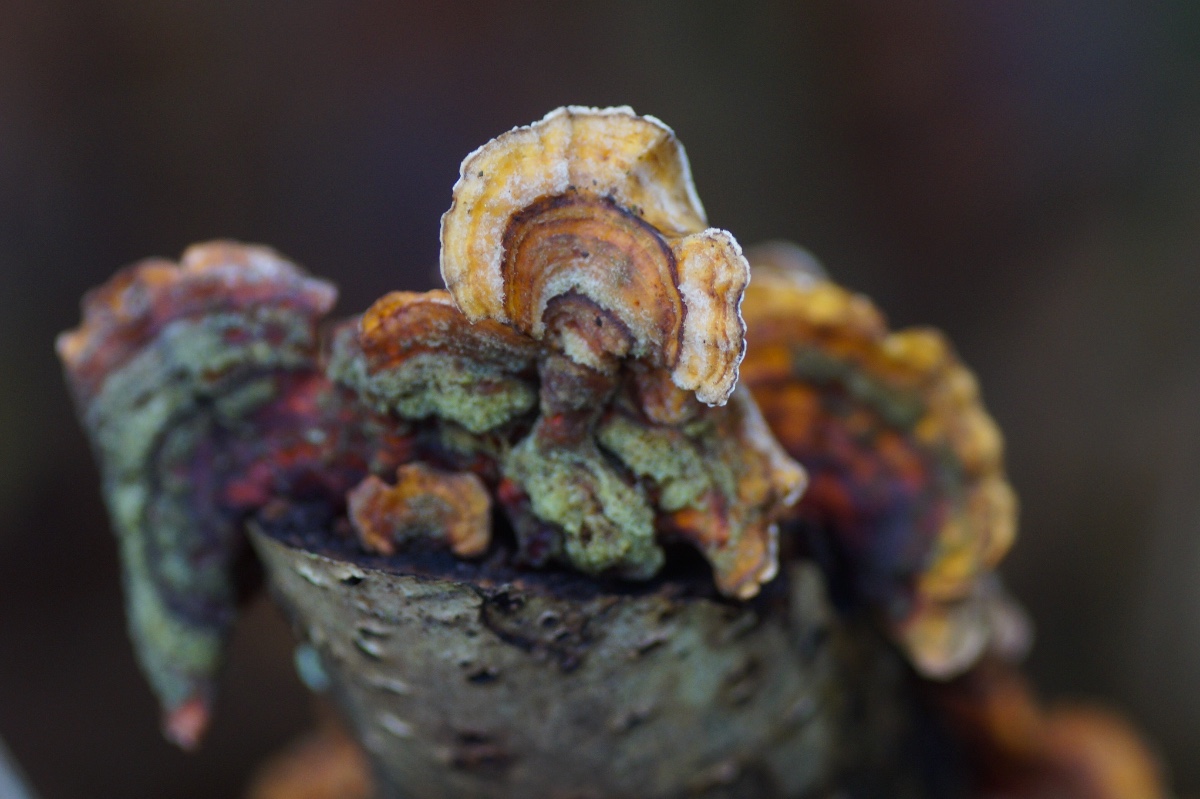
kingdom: Fungi
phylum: Basidiomycota
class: Agaricomycetes
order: Russulales
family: Stereaceae
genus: Stereum
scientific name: Stereum subtomentosum
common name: smuk lædersvamp
